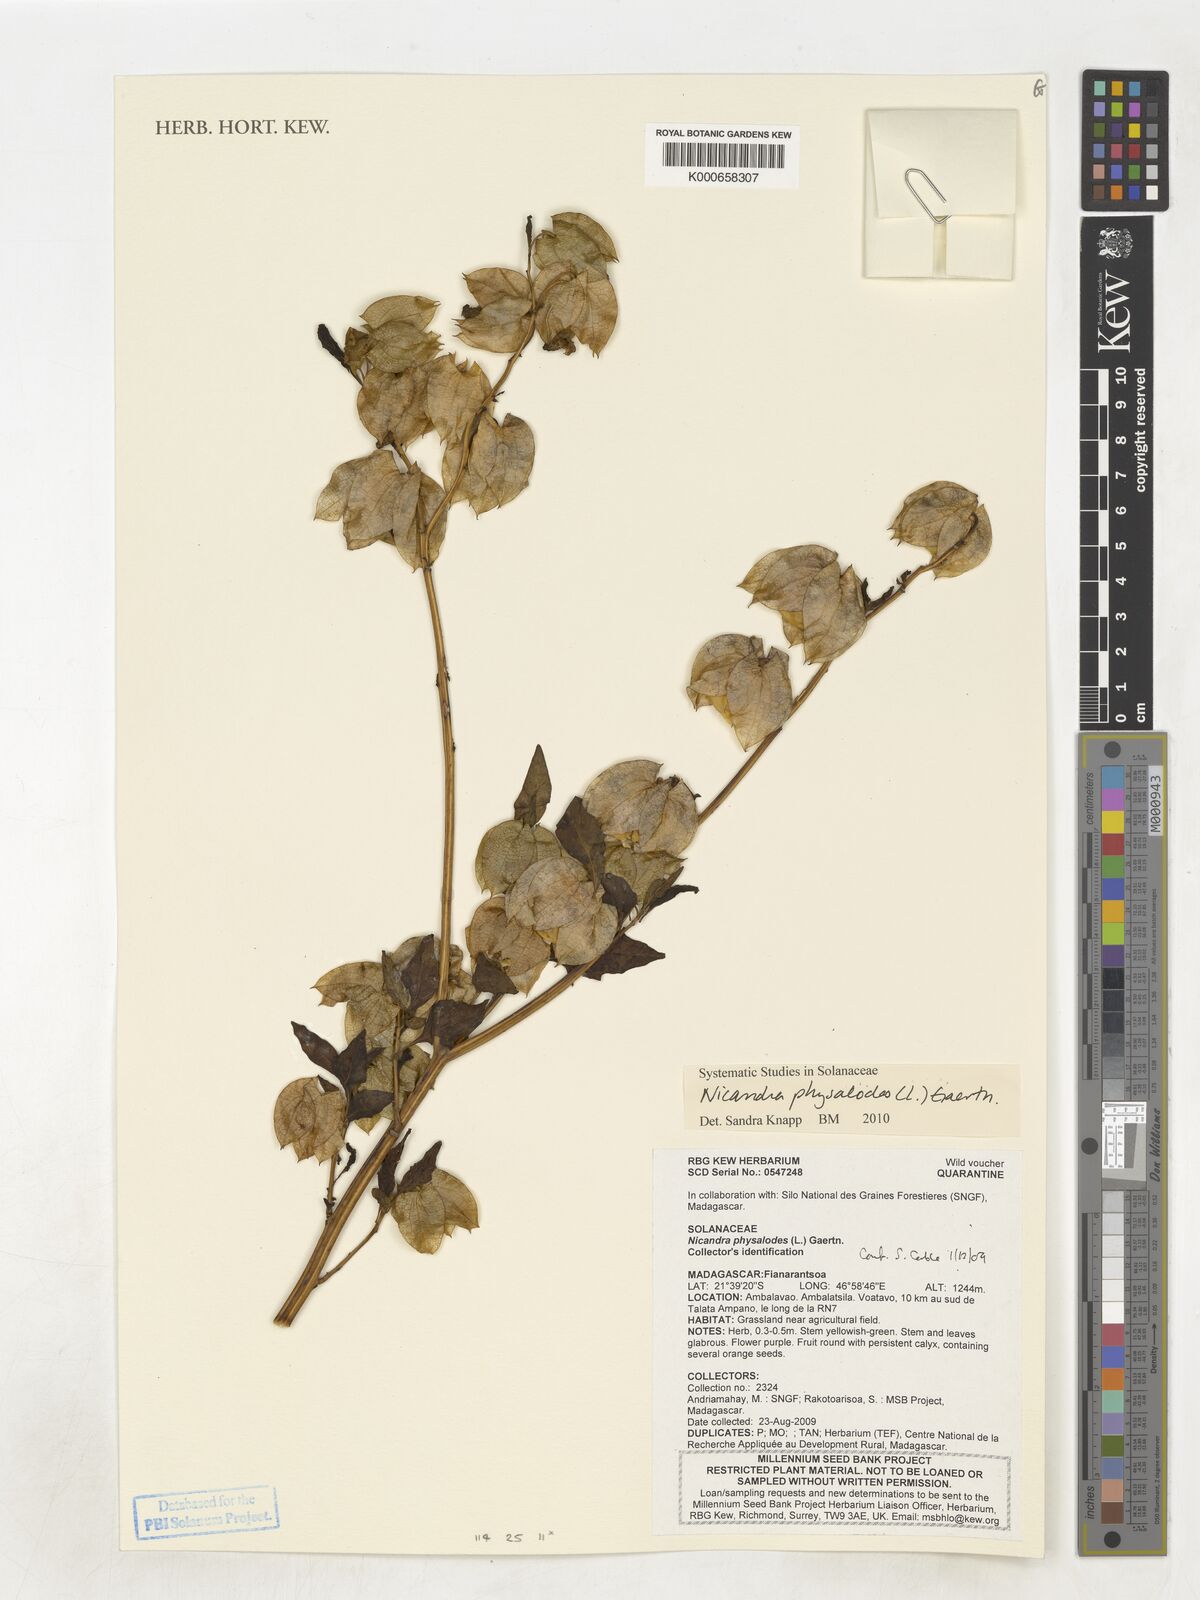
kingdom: Plantae
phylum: Tracheophyta
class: Magnoliopsida
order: Solanales
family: Solanaceae
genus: Nicandra
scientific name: Nicandra physalodes
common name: Apple-of-peru
